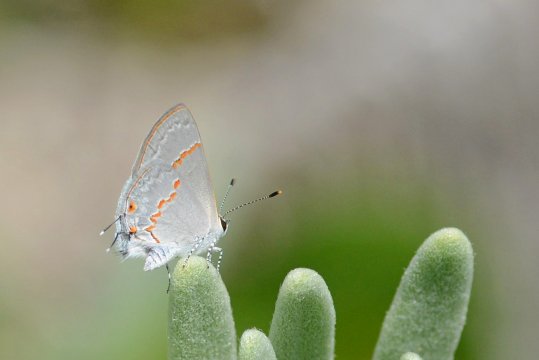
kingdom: Animalia
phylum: Arthropoda
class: Insecta
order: Lepidoptera
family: Lycaenidae
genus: Thecla
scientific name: Thecla azia
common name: Gray Ministreak
